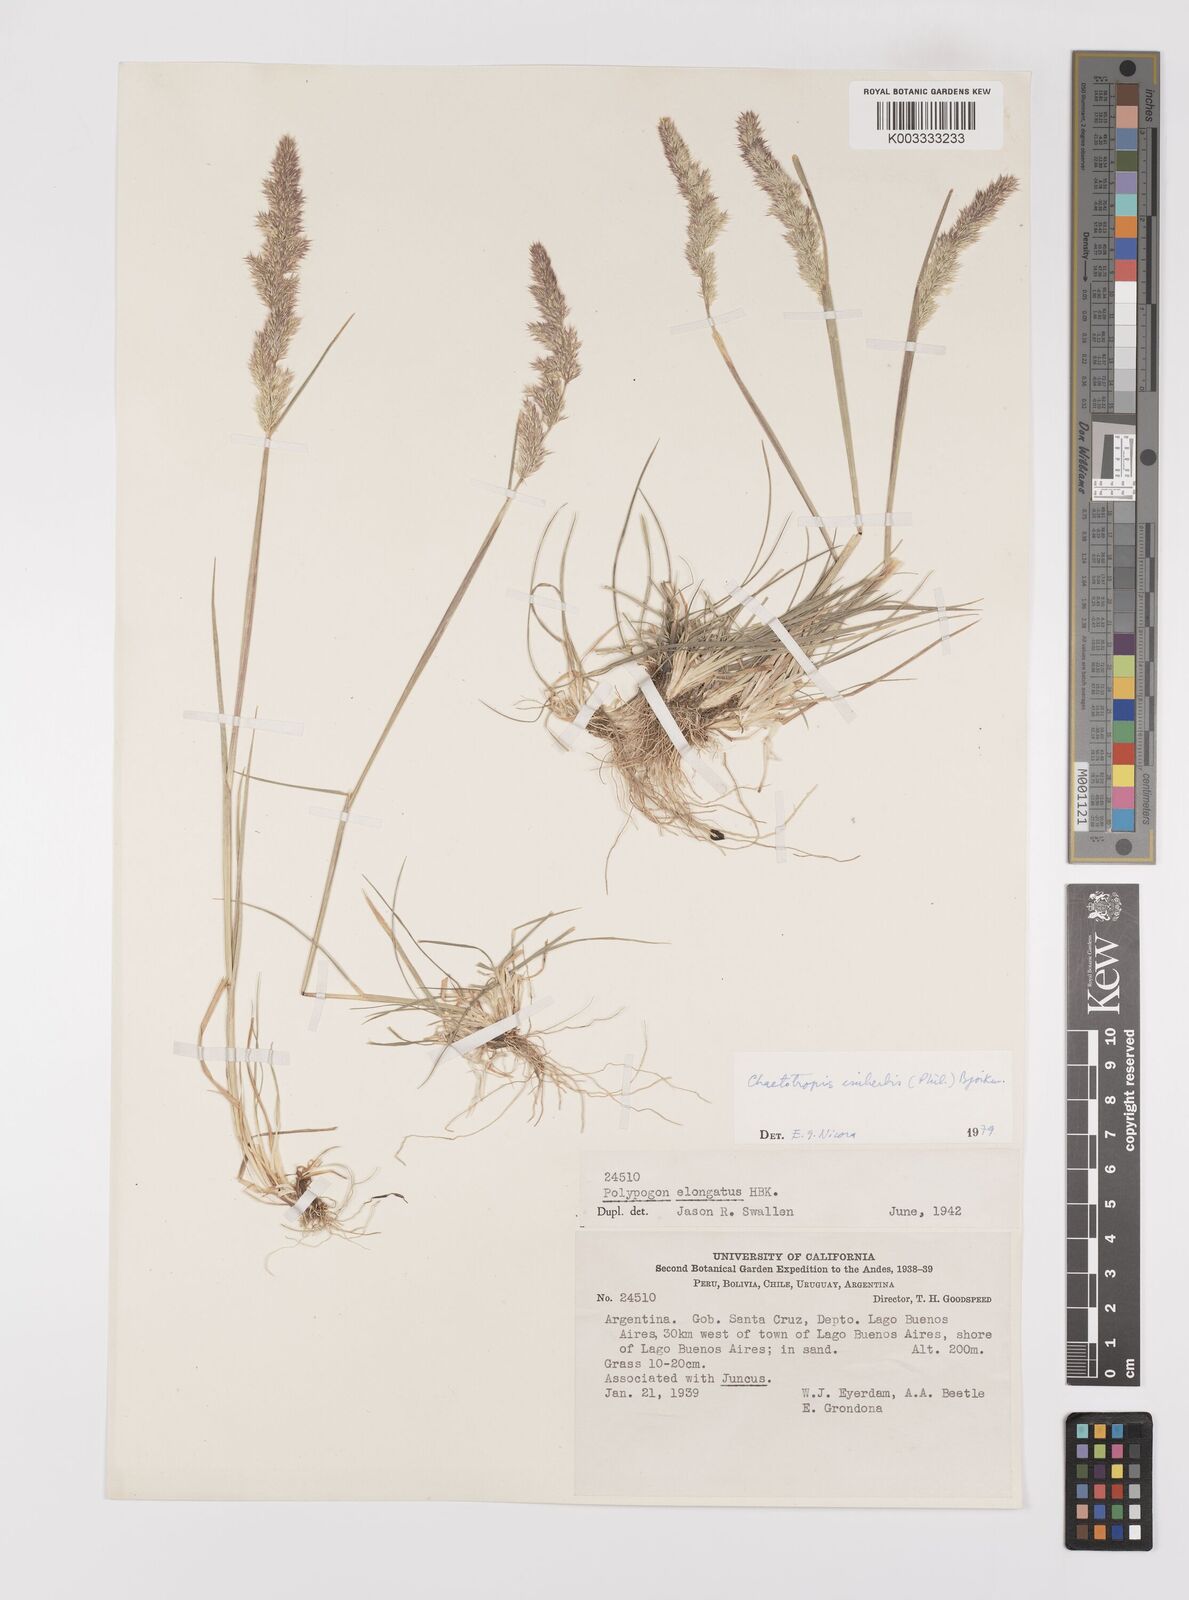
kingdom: Plantae
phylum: Tracheophyta
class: Liliopsida
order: Poales
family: Poaceae
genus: Polypogon
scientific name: Polypogon imberbis
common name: Beardless rabbitsfoot grass
